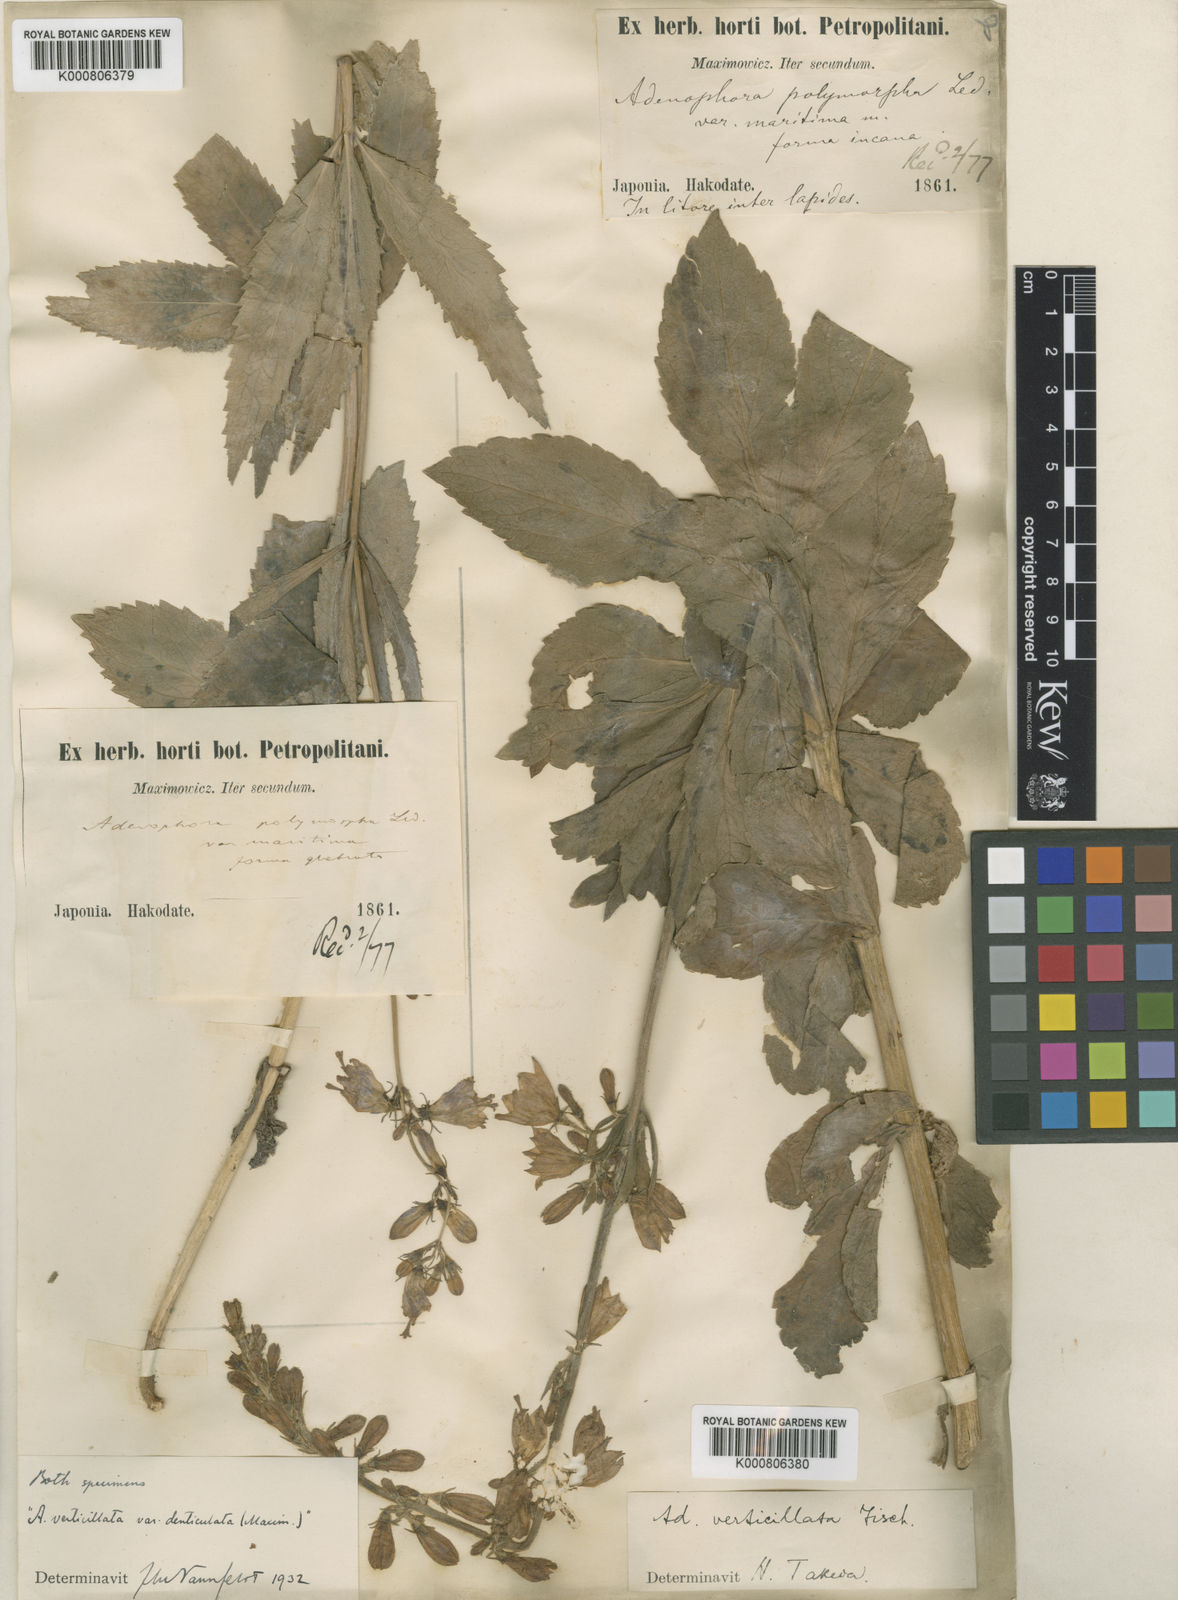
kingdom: Plantae
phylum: Tracheophyta
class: Magnoliopsida
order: Asterales
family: Campanulaceae
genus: Adenophora
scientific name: Adenophora triphylla
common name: Giant-bellflower
